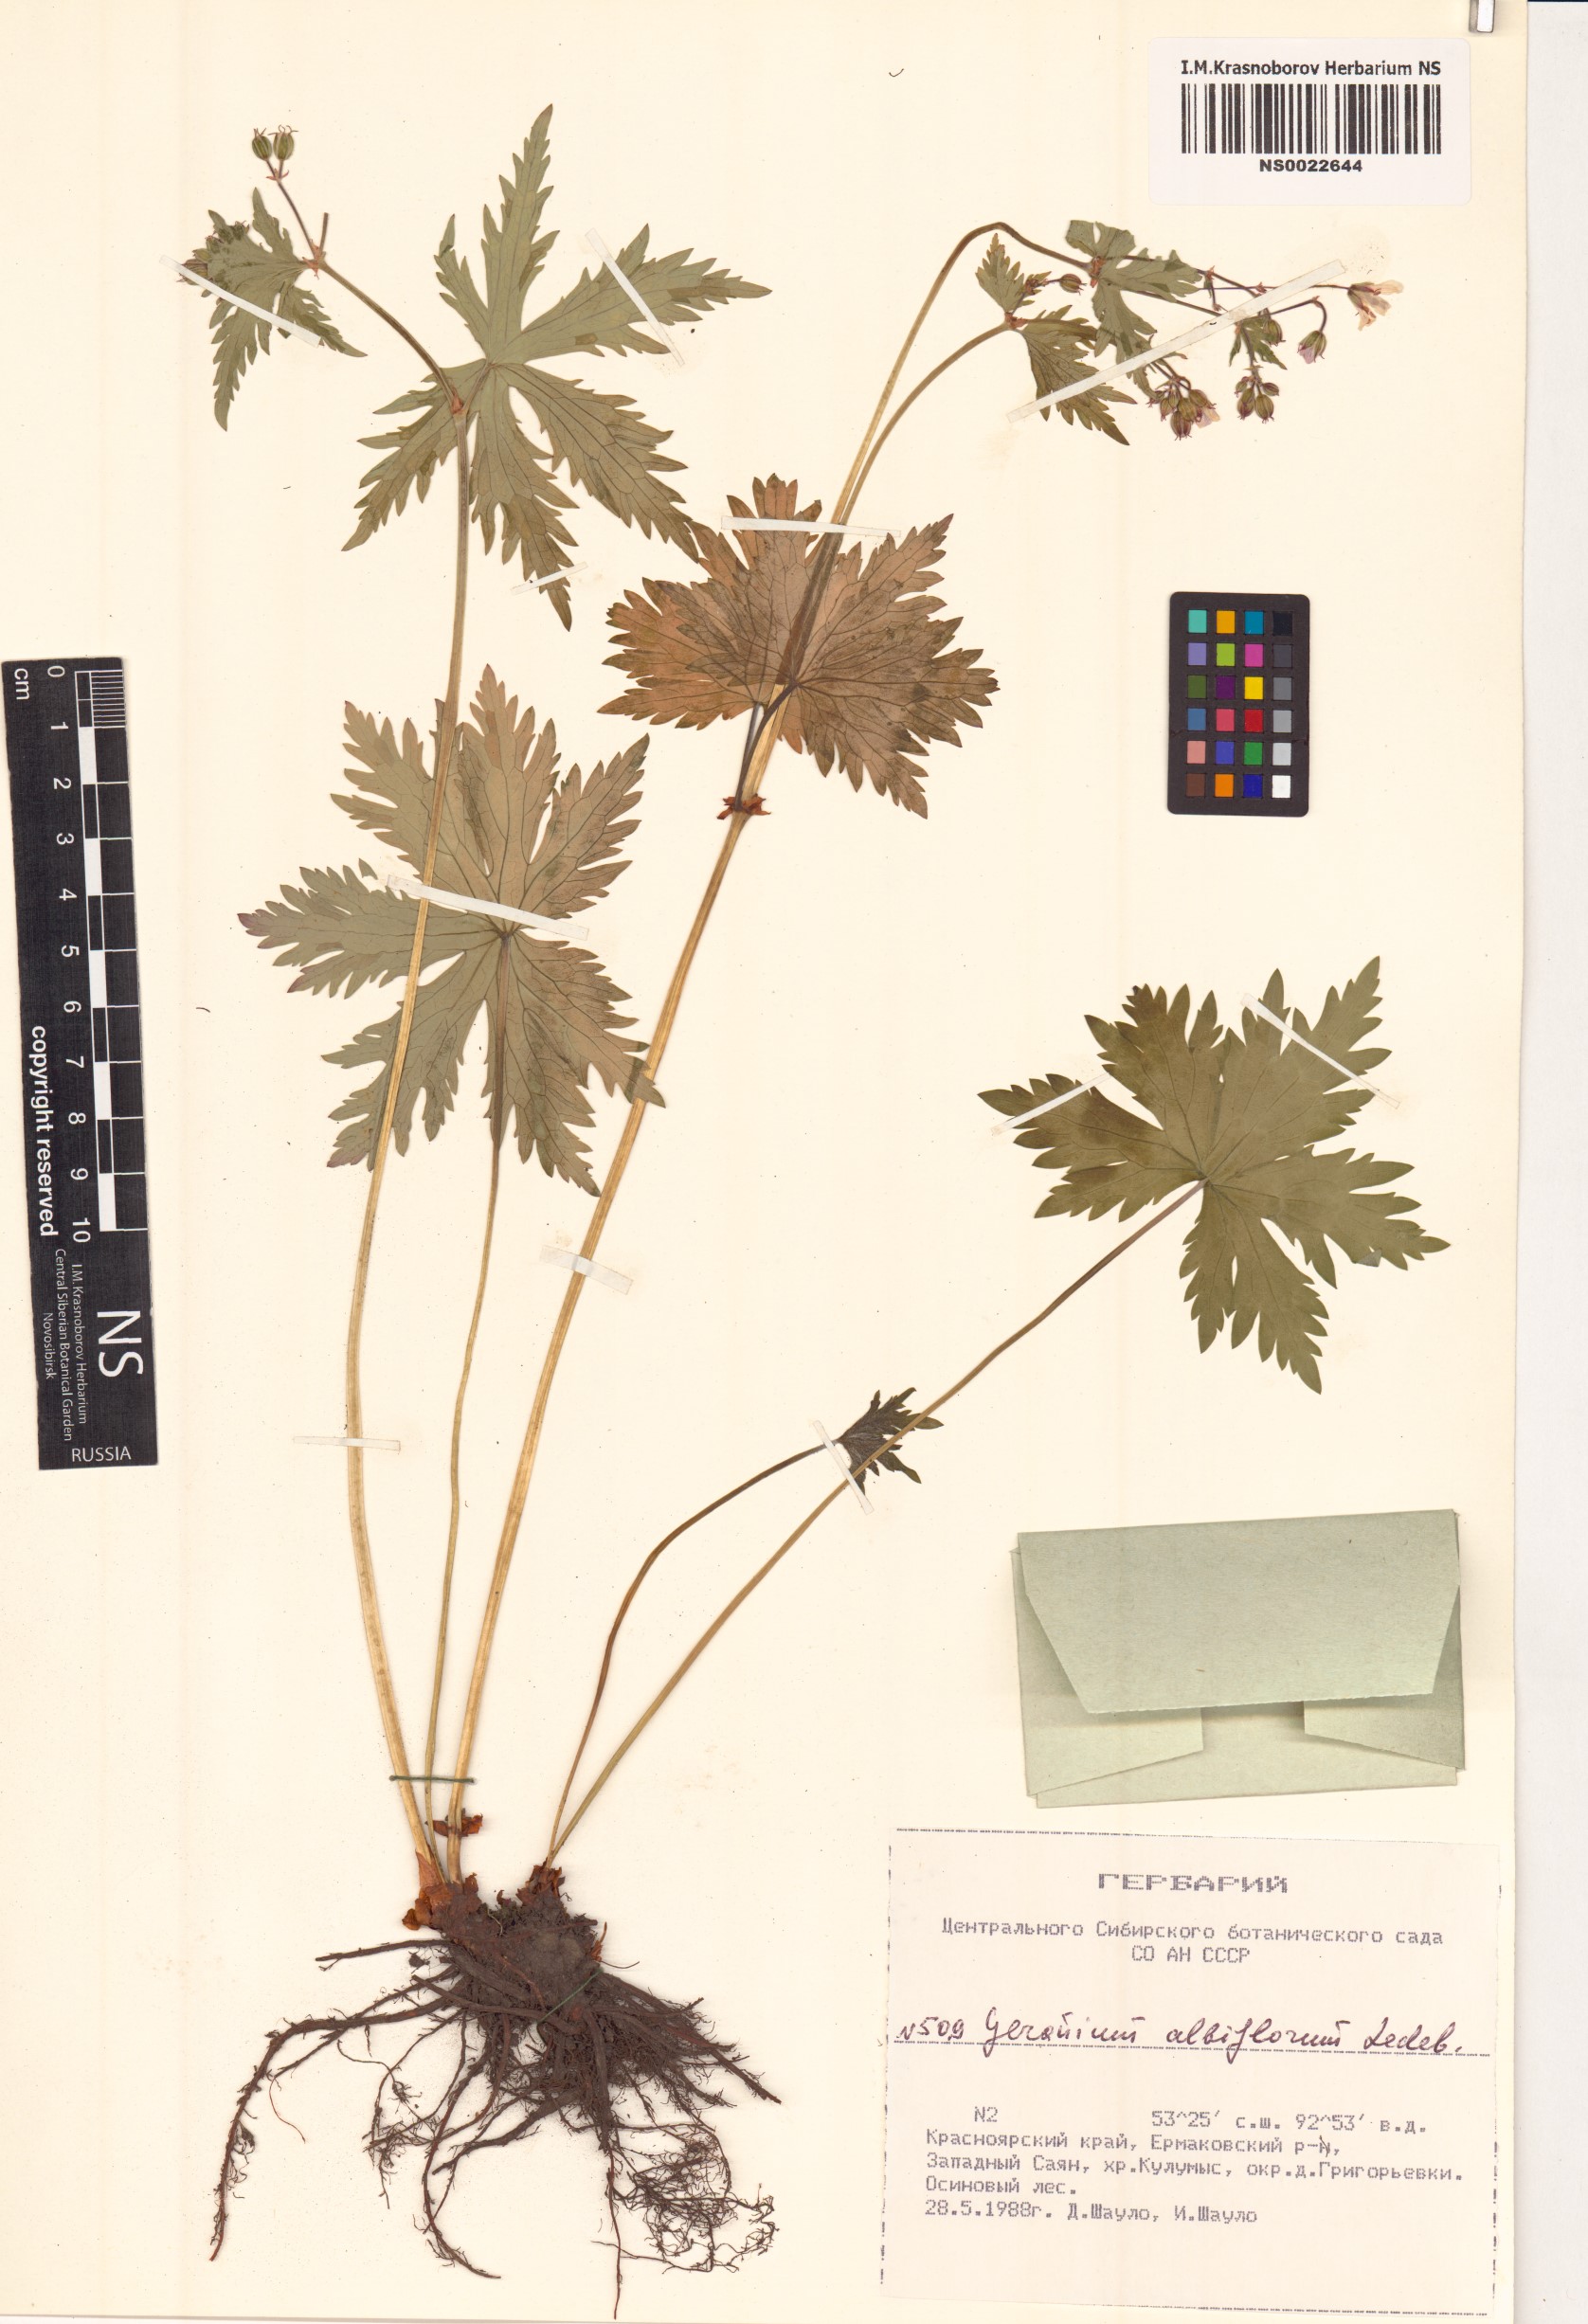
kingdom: Plantae
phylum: Tracheophyta
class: Magnoliopsida
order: Geraniales
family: Geraniaceae
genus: Geranium
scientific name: Geranium albiflorum
